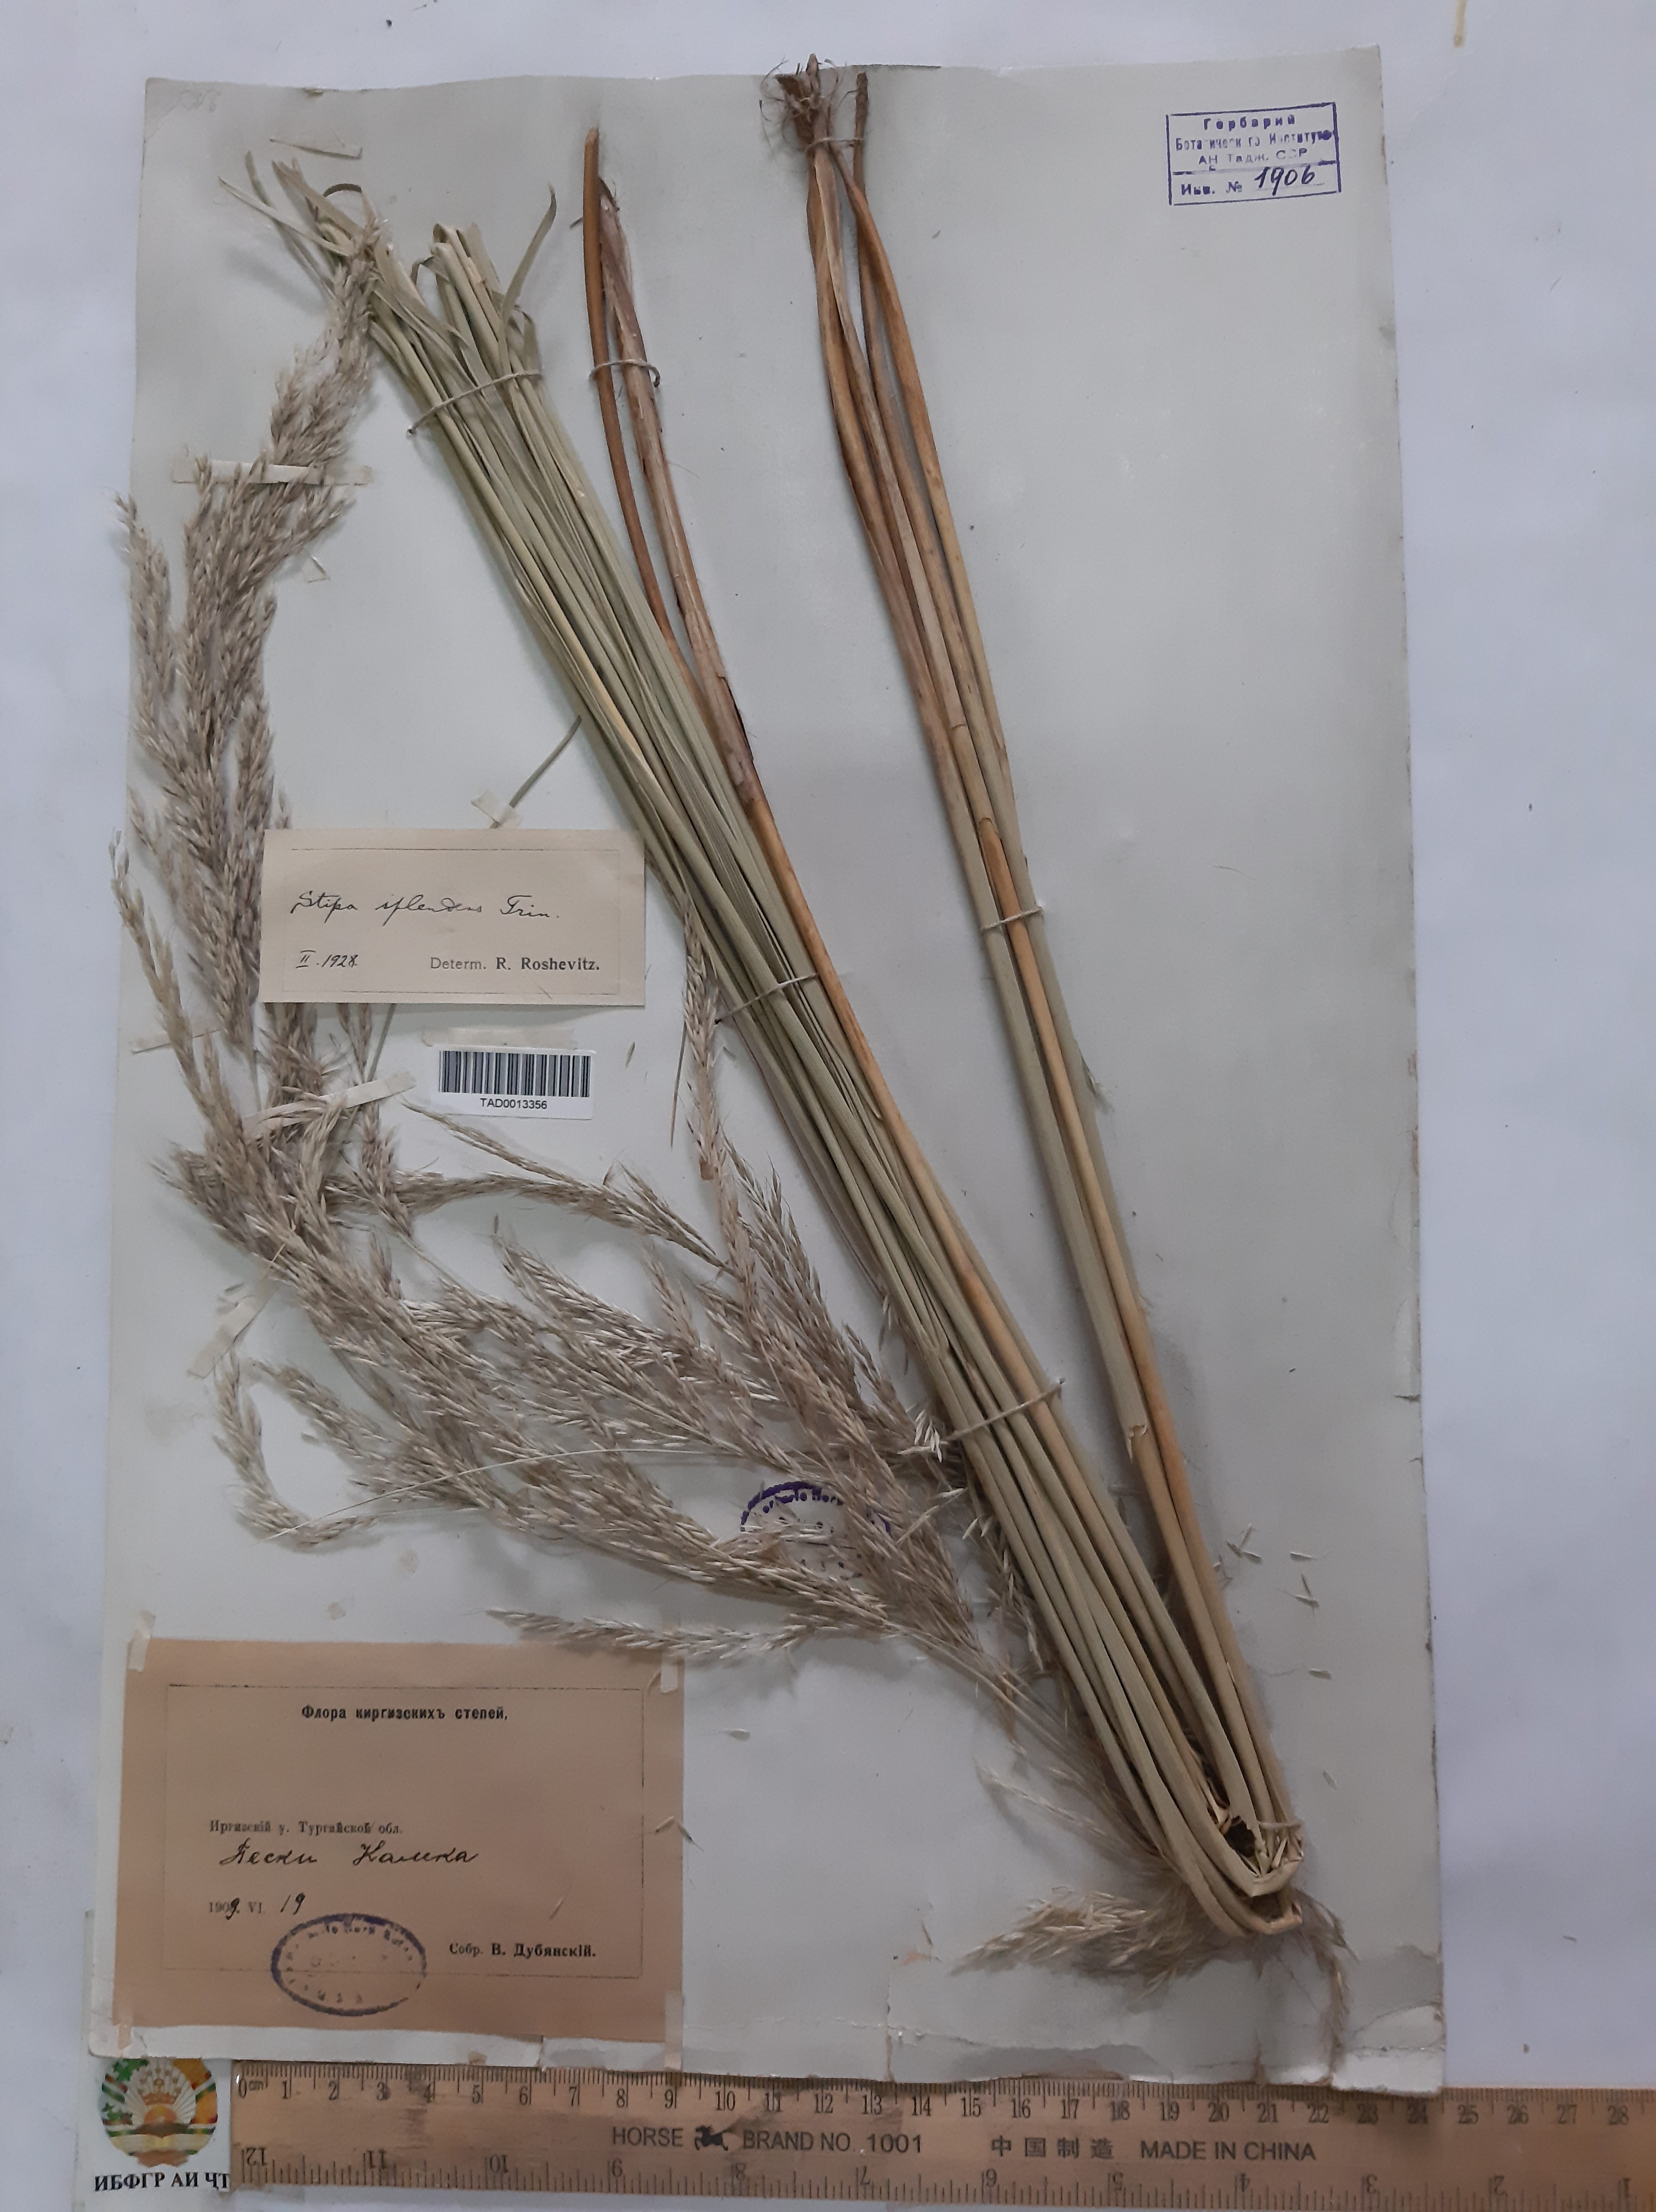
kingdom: Plantae
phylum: Tracheophyta
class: Liliopsida
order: Poales
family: Poaceae
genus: Neotrinia
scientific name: Neotrinia splendens
